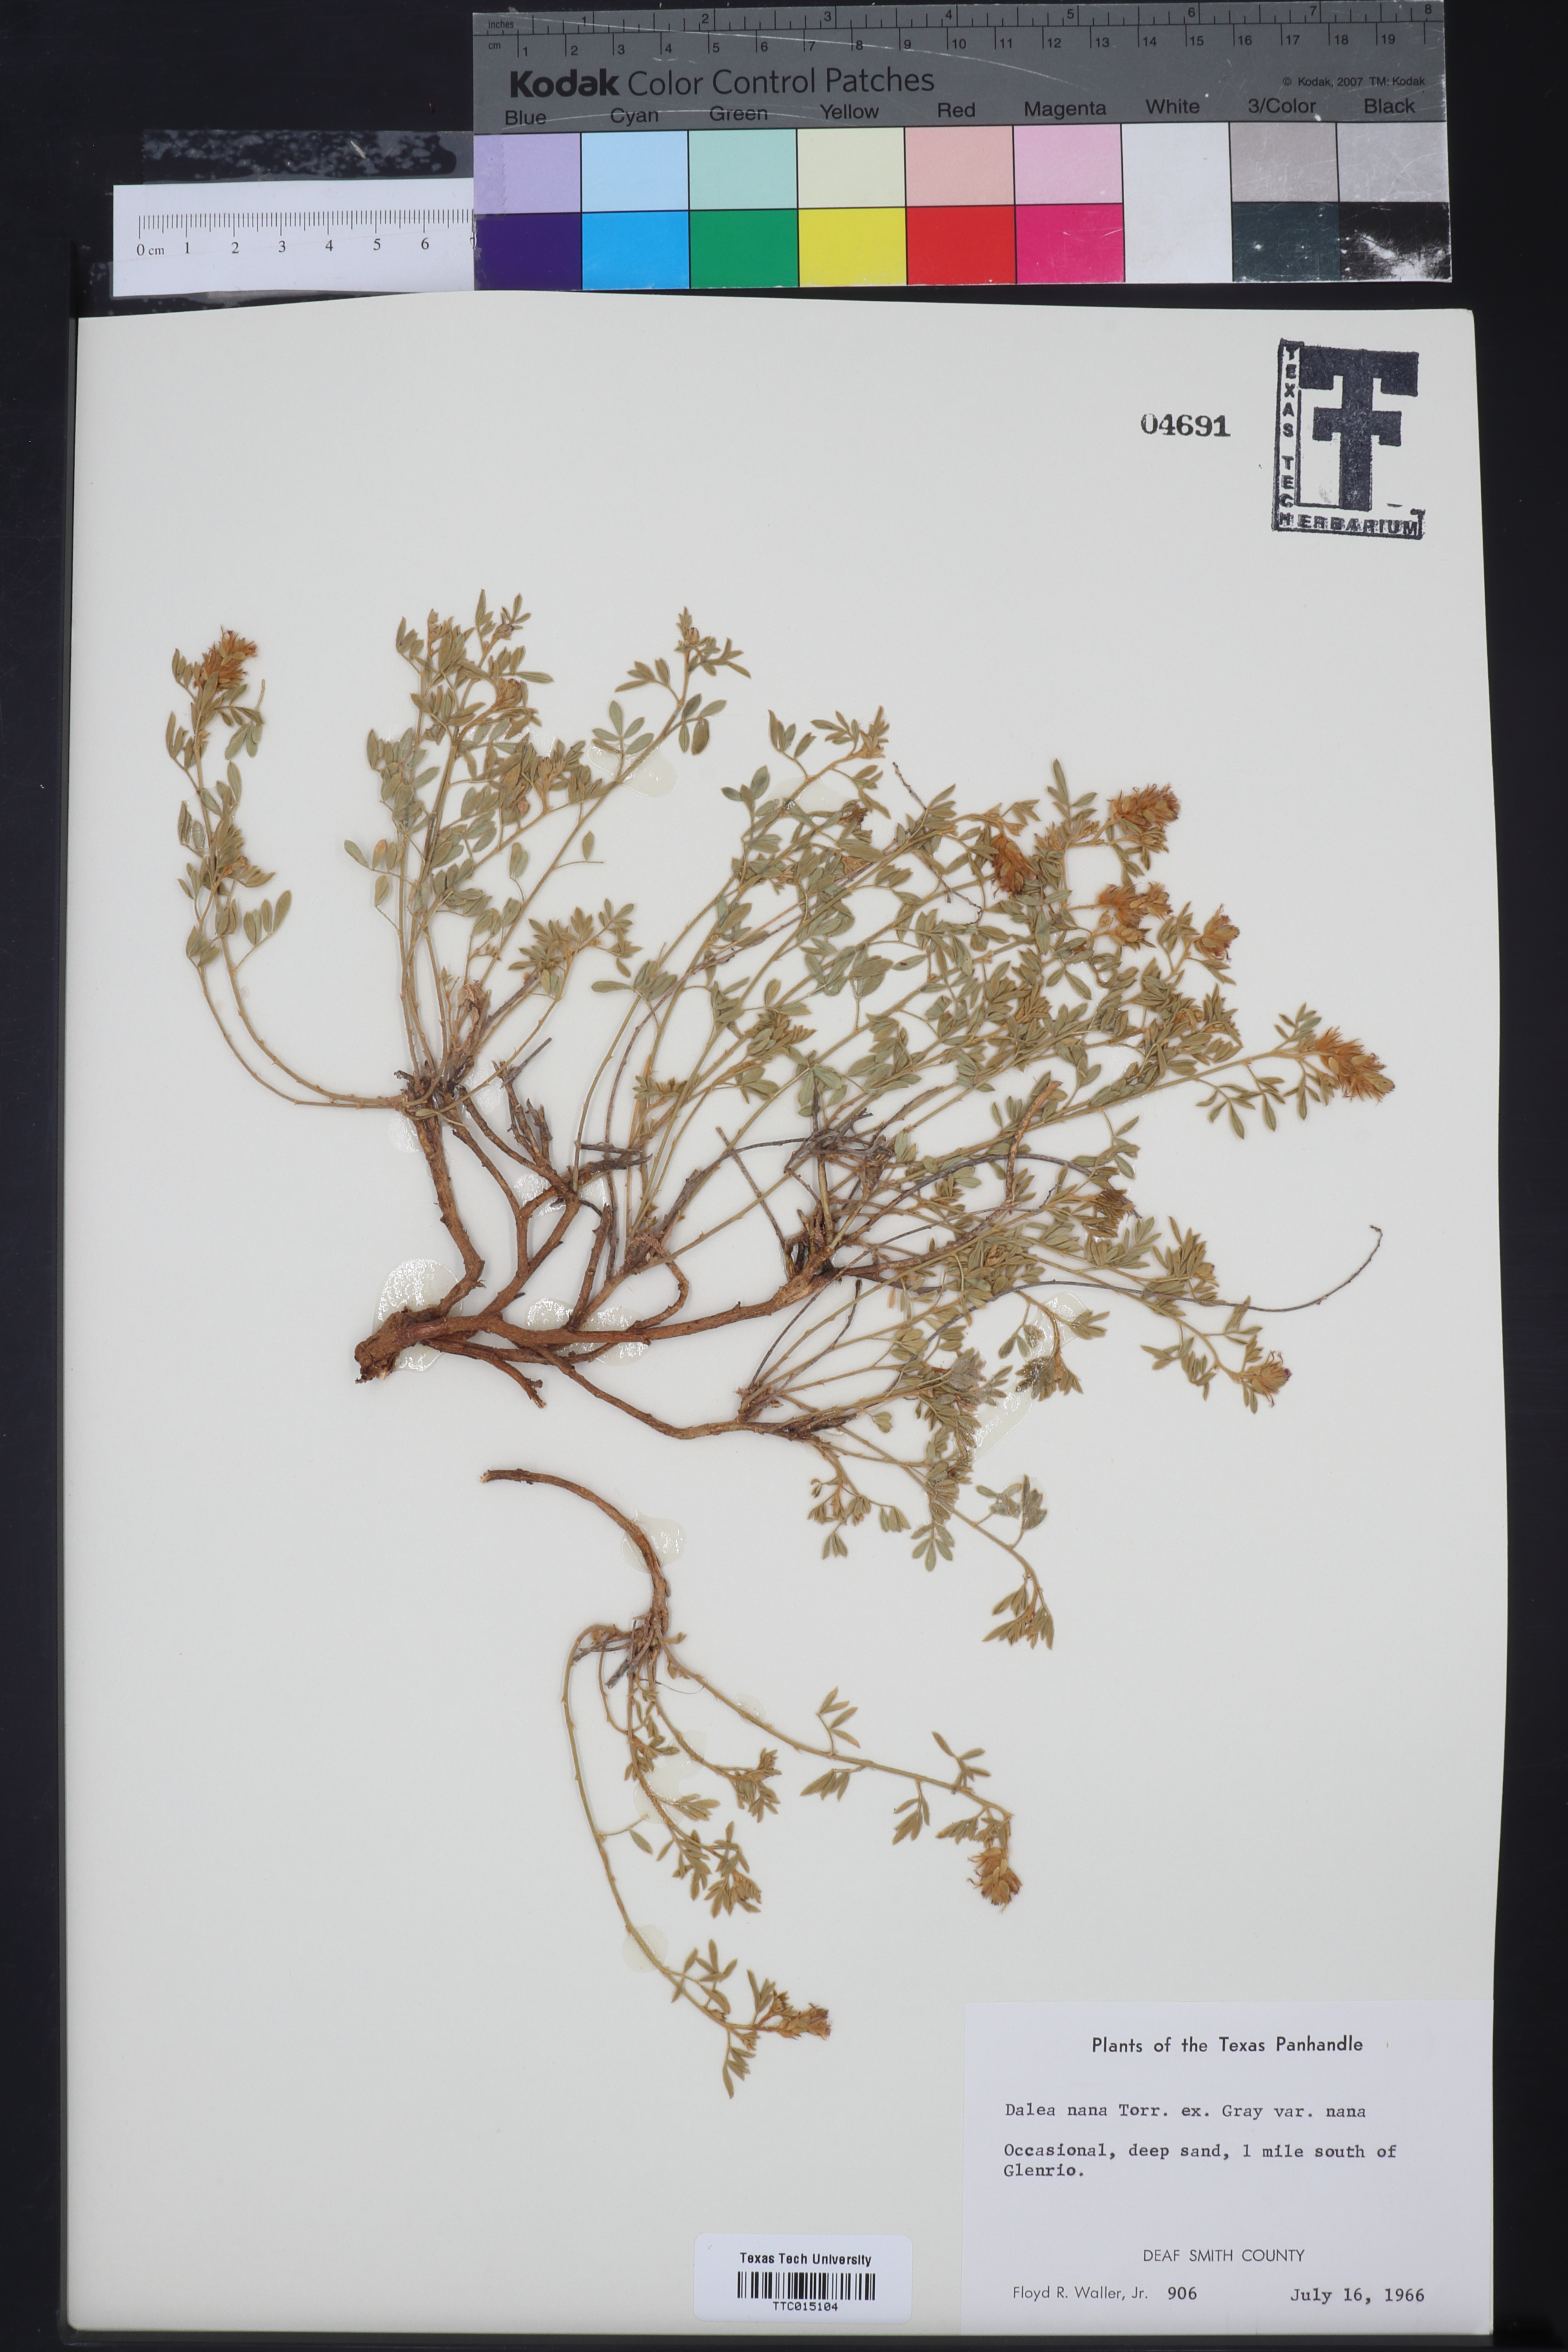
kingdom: Plantae
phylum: Tracheophyta
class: Magnoliopsida
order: Fabales
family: Fabaceae
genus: Dalea
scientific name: Dalea nana
